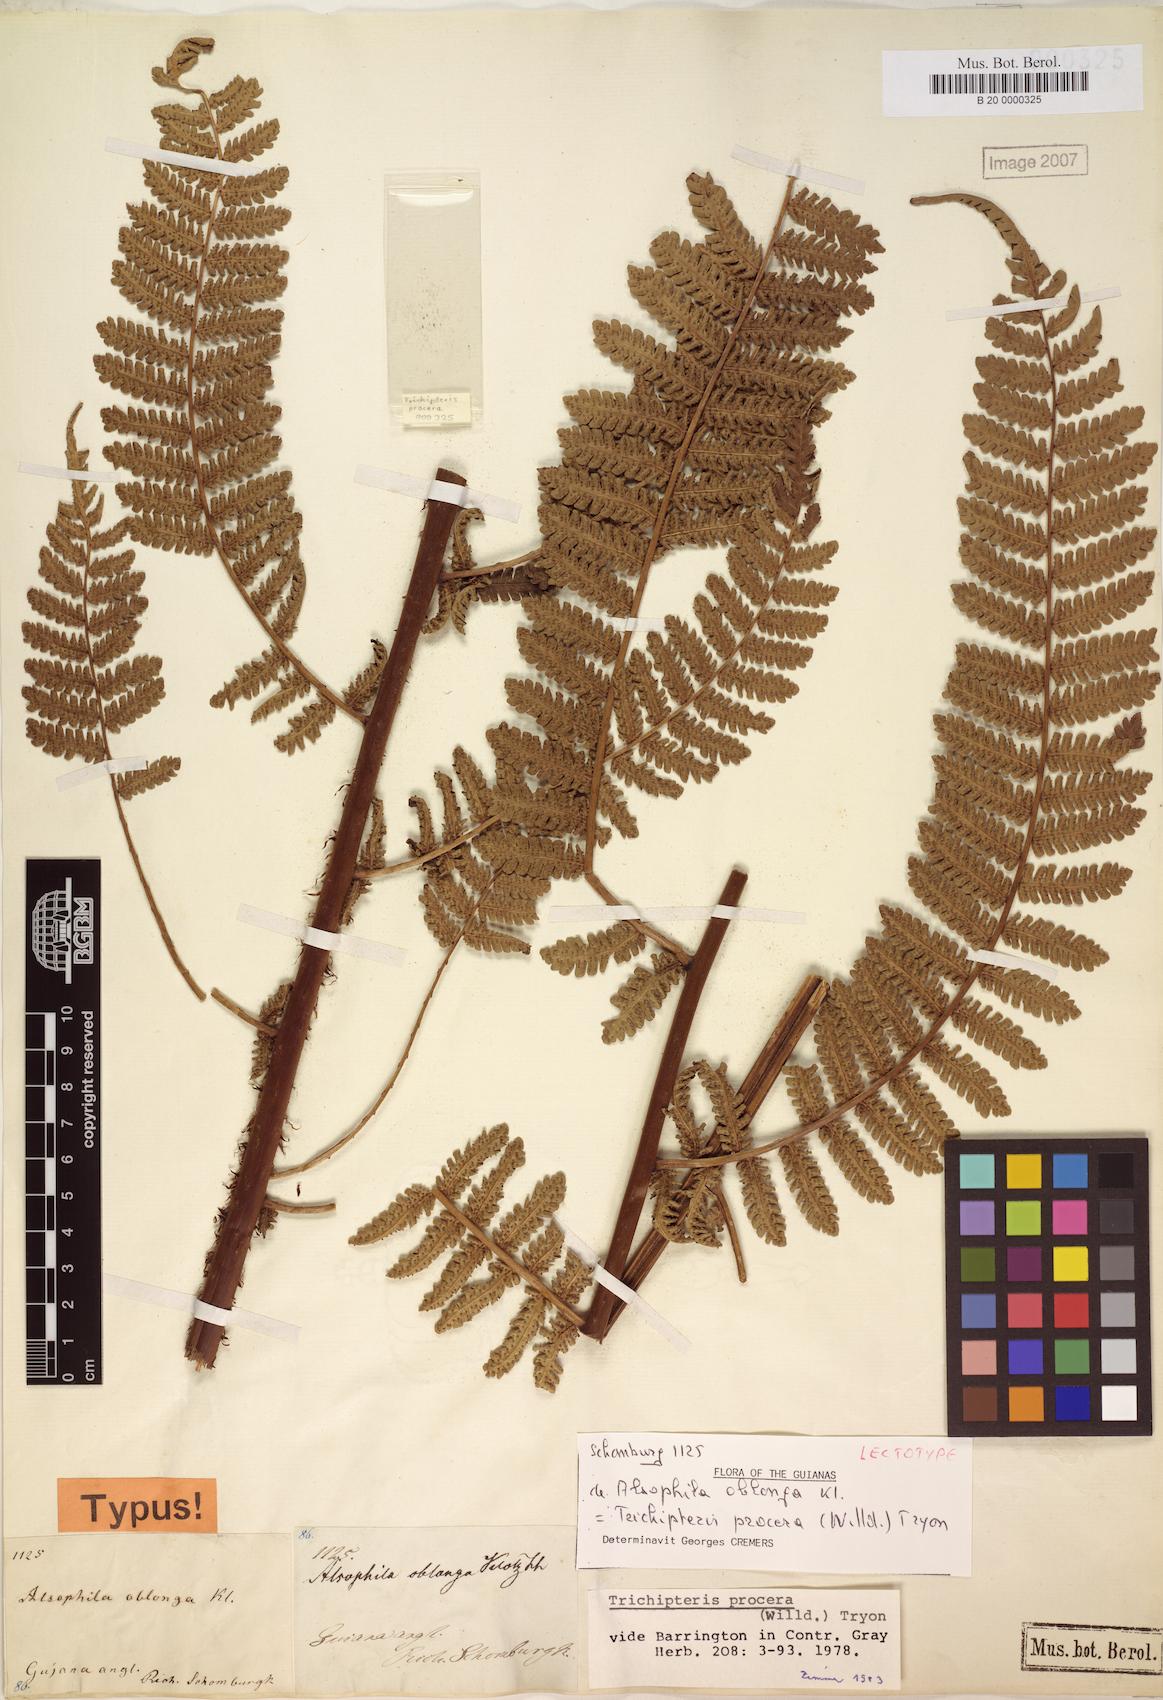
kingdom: Plantae
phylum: Tracheophyta
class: Polypodiopsida
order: Cyatheales
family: Cyatheaceae
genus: Cyathea
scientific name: Cyathea pungens
